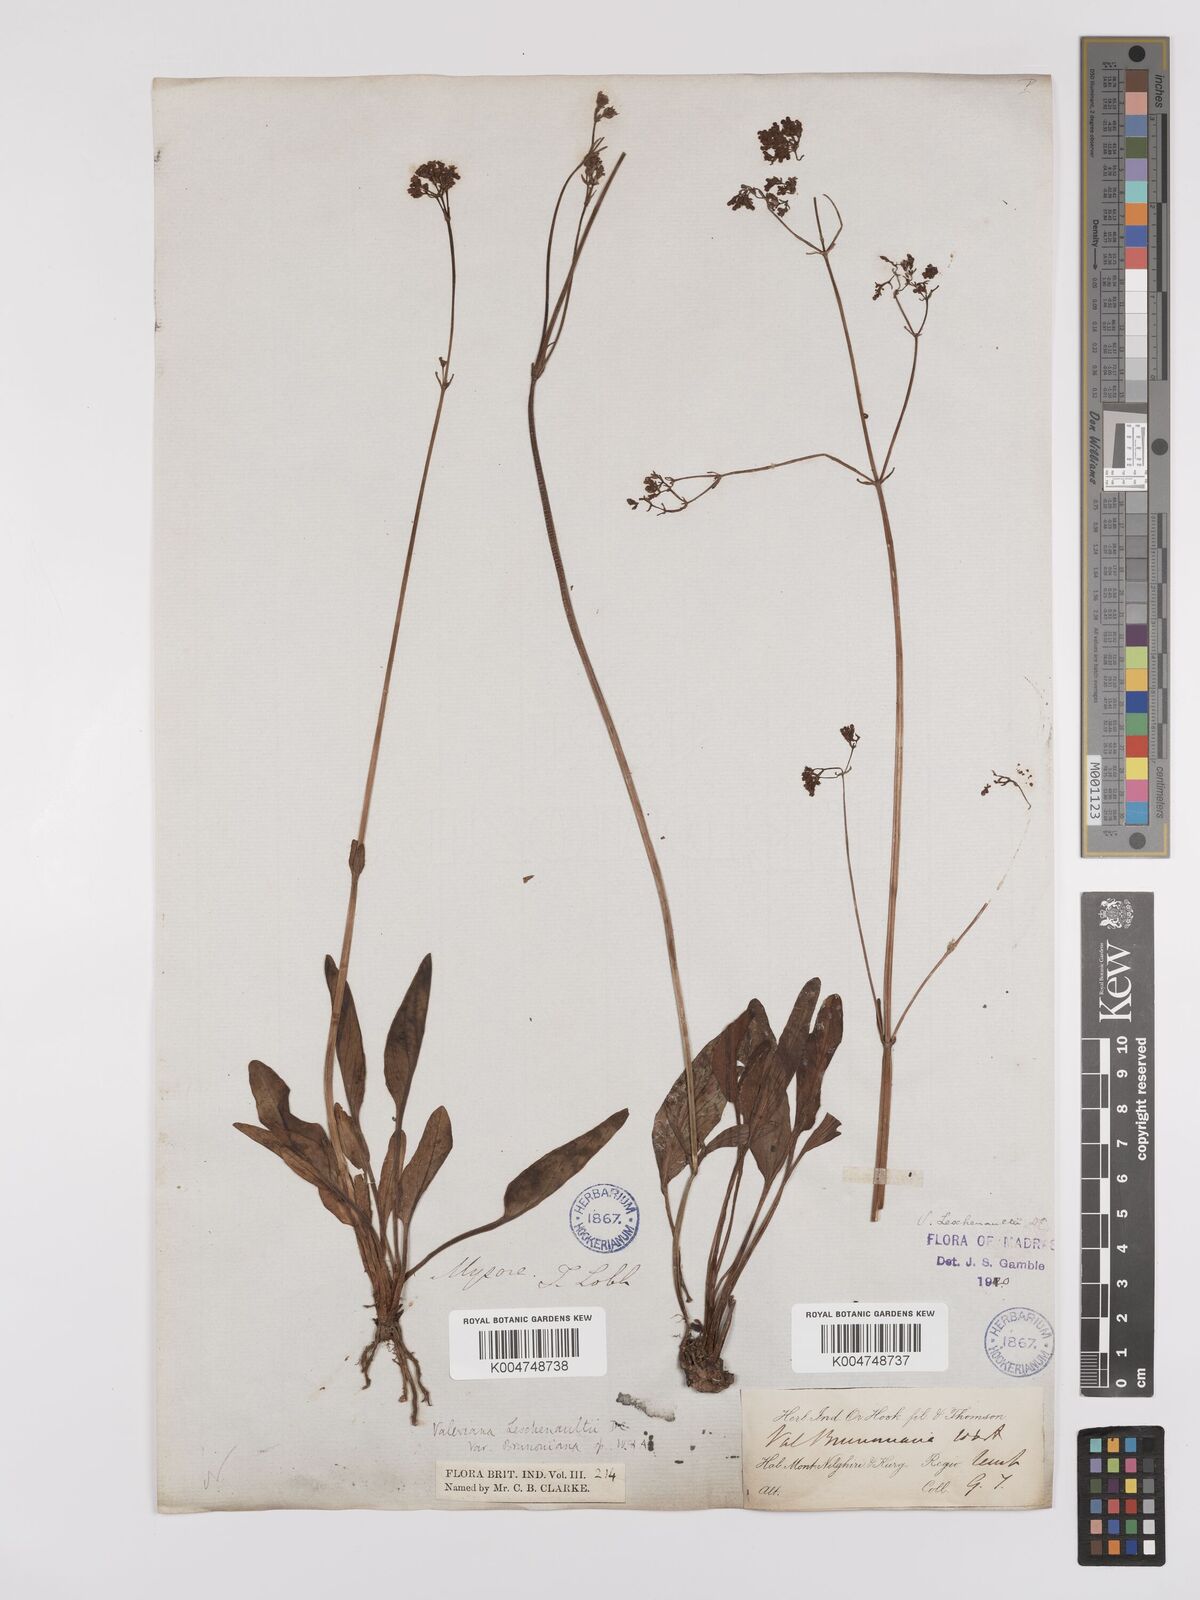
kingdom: Plantae
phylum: Tracheophyta
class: Magnoliopsida
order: Dipsacales
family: Caprifoliaceae
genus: Valeriana
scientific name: Valeriana leschenaultii
